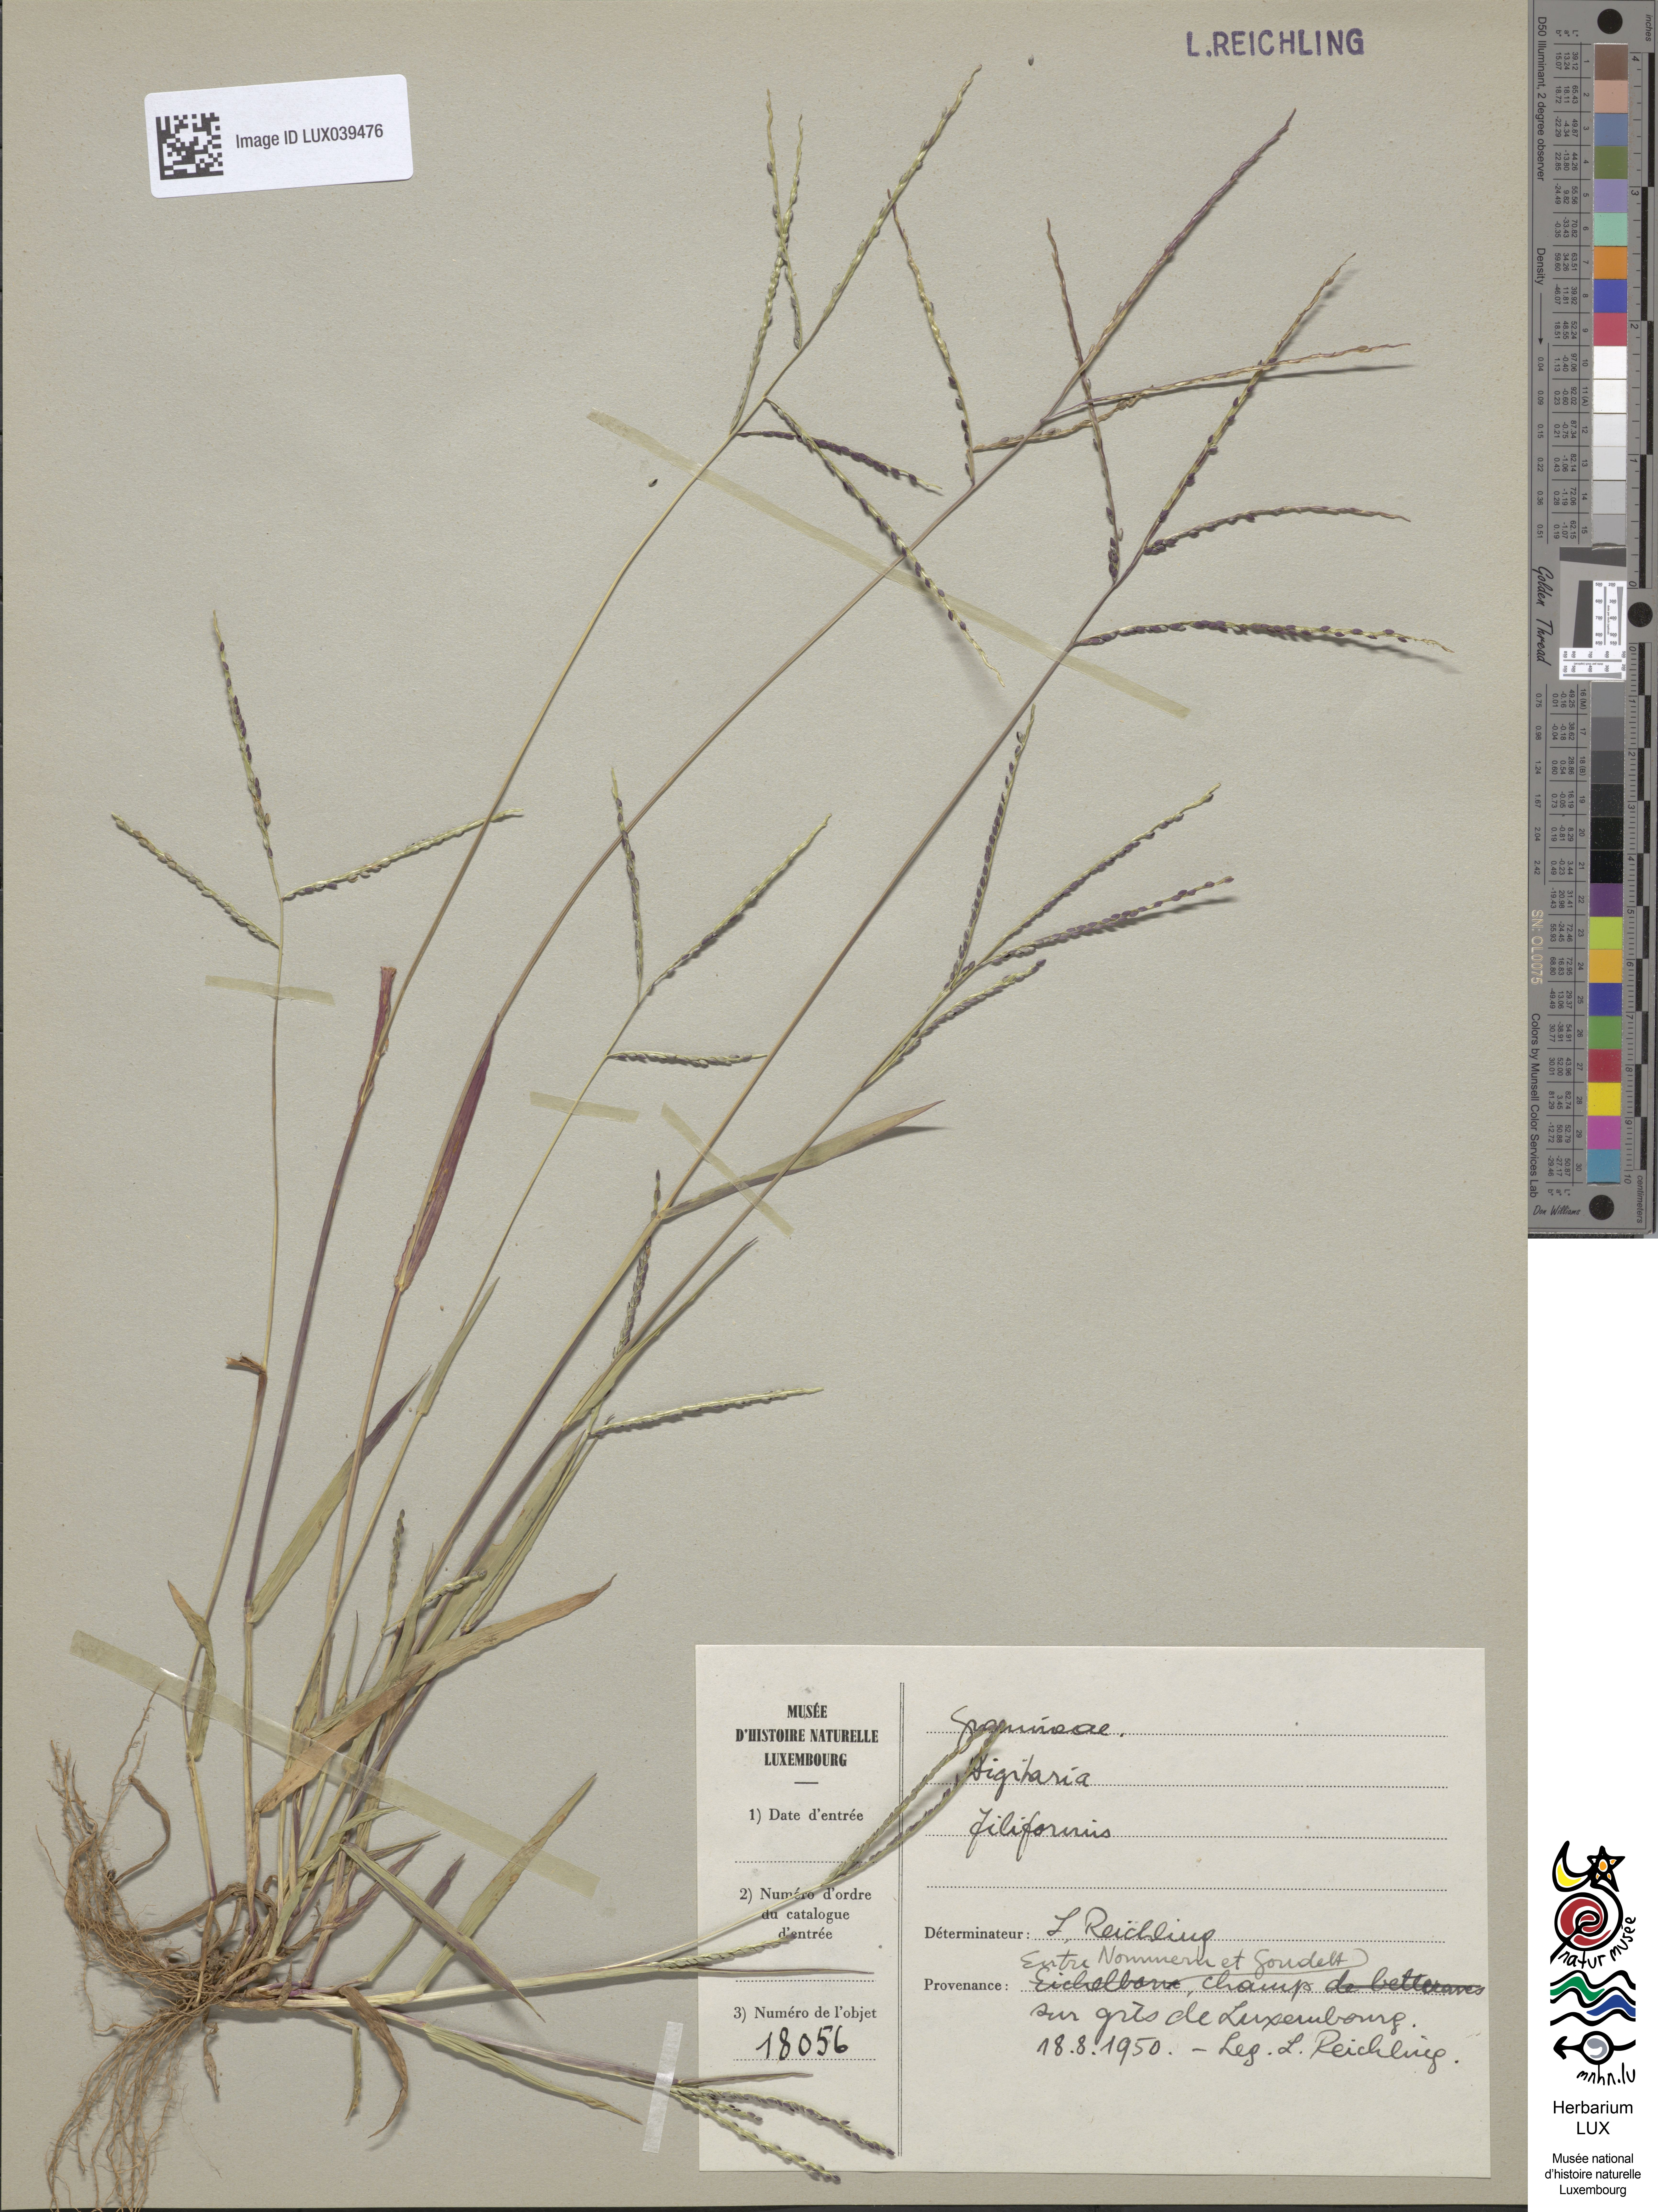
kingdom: Plantae
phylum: Tracheophyta
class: Liliopsida
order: Poales
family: Poaceae
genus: Digitaria
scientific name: Digitaria ischaemum
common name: Smooth crabgrass
